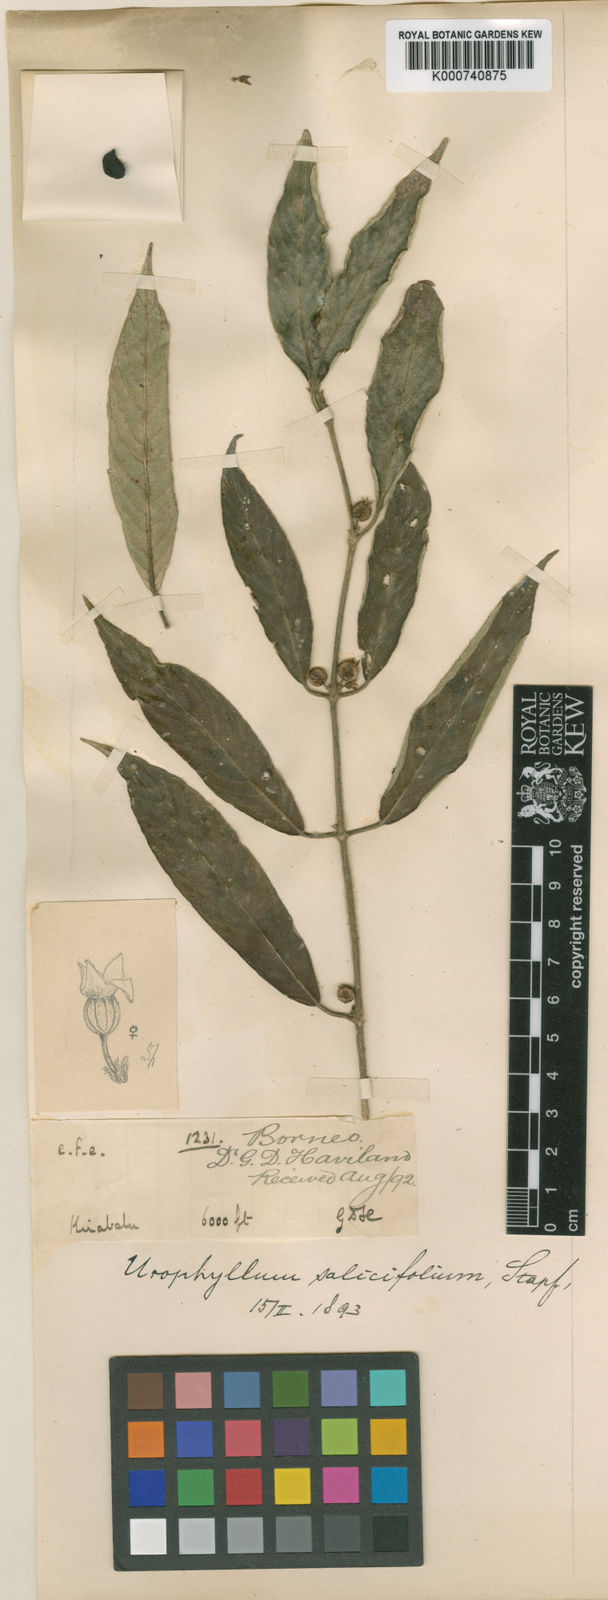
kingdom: Plantae
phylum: Tracheophyta
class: Magnoliopsida
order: Gentianales
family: Rubiaceae
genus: Urophyllum
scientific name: Urophyllum salicifolium
